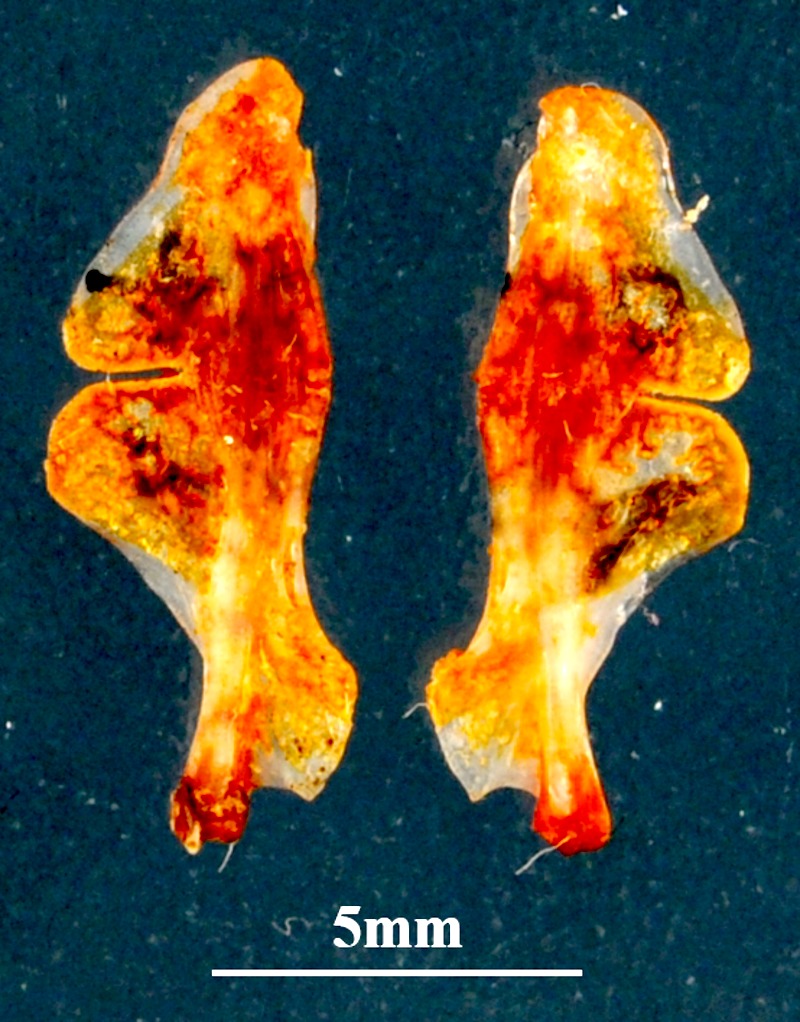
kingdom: Animalia
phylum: Chordata
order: Perciformes
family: Sparidae
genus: Spicara
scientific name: Spicara smaris
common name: Picarel
